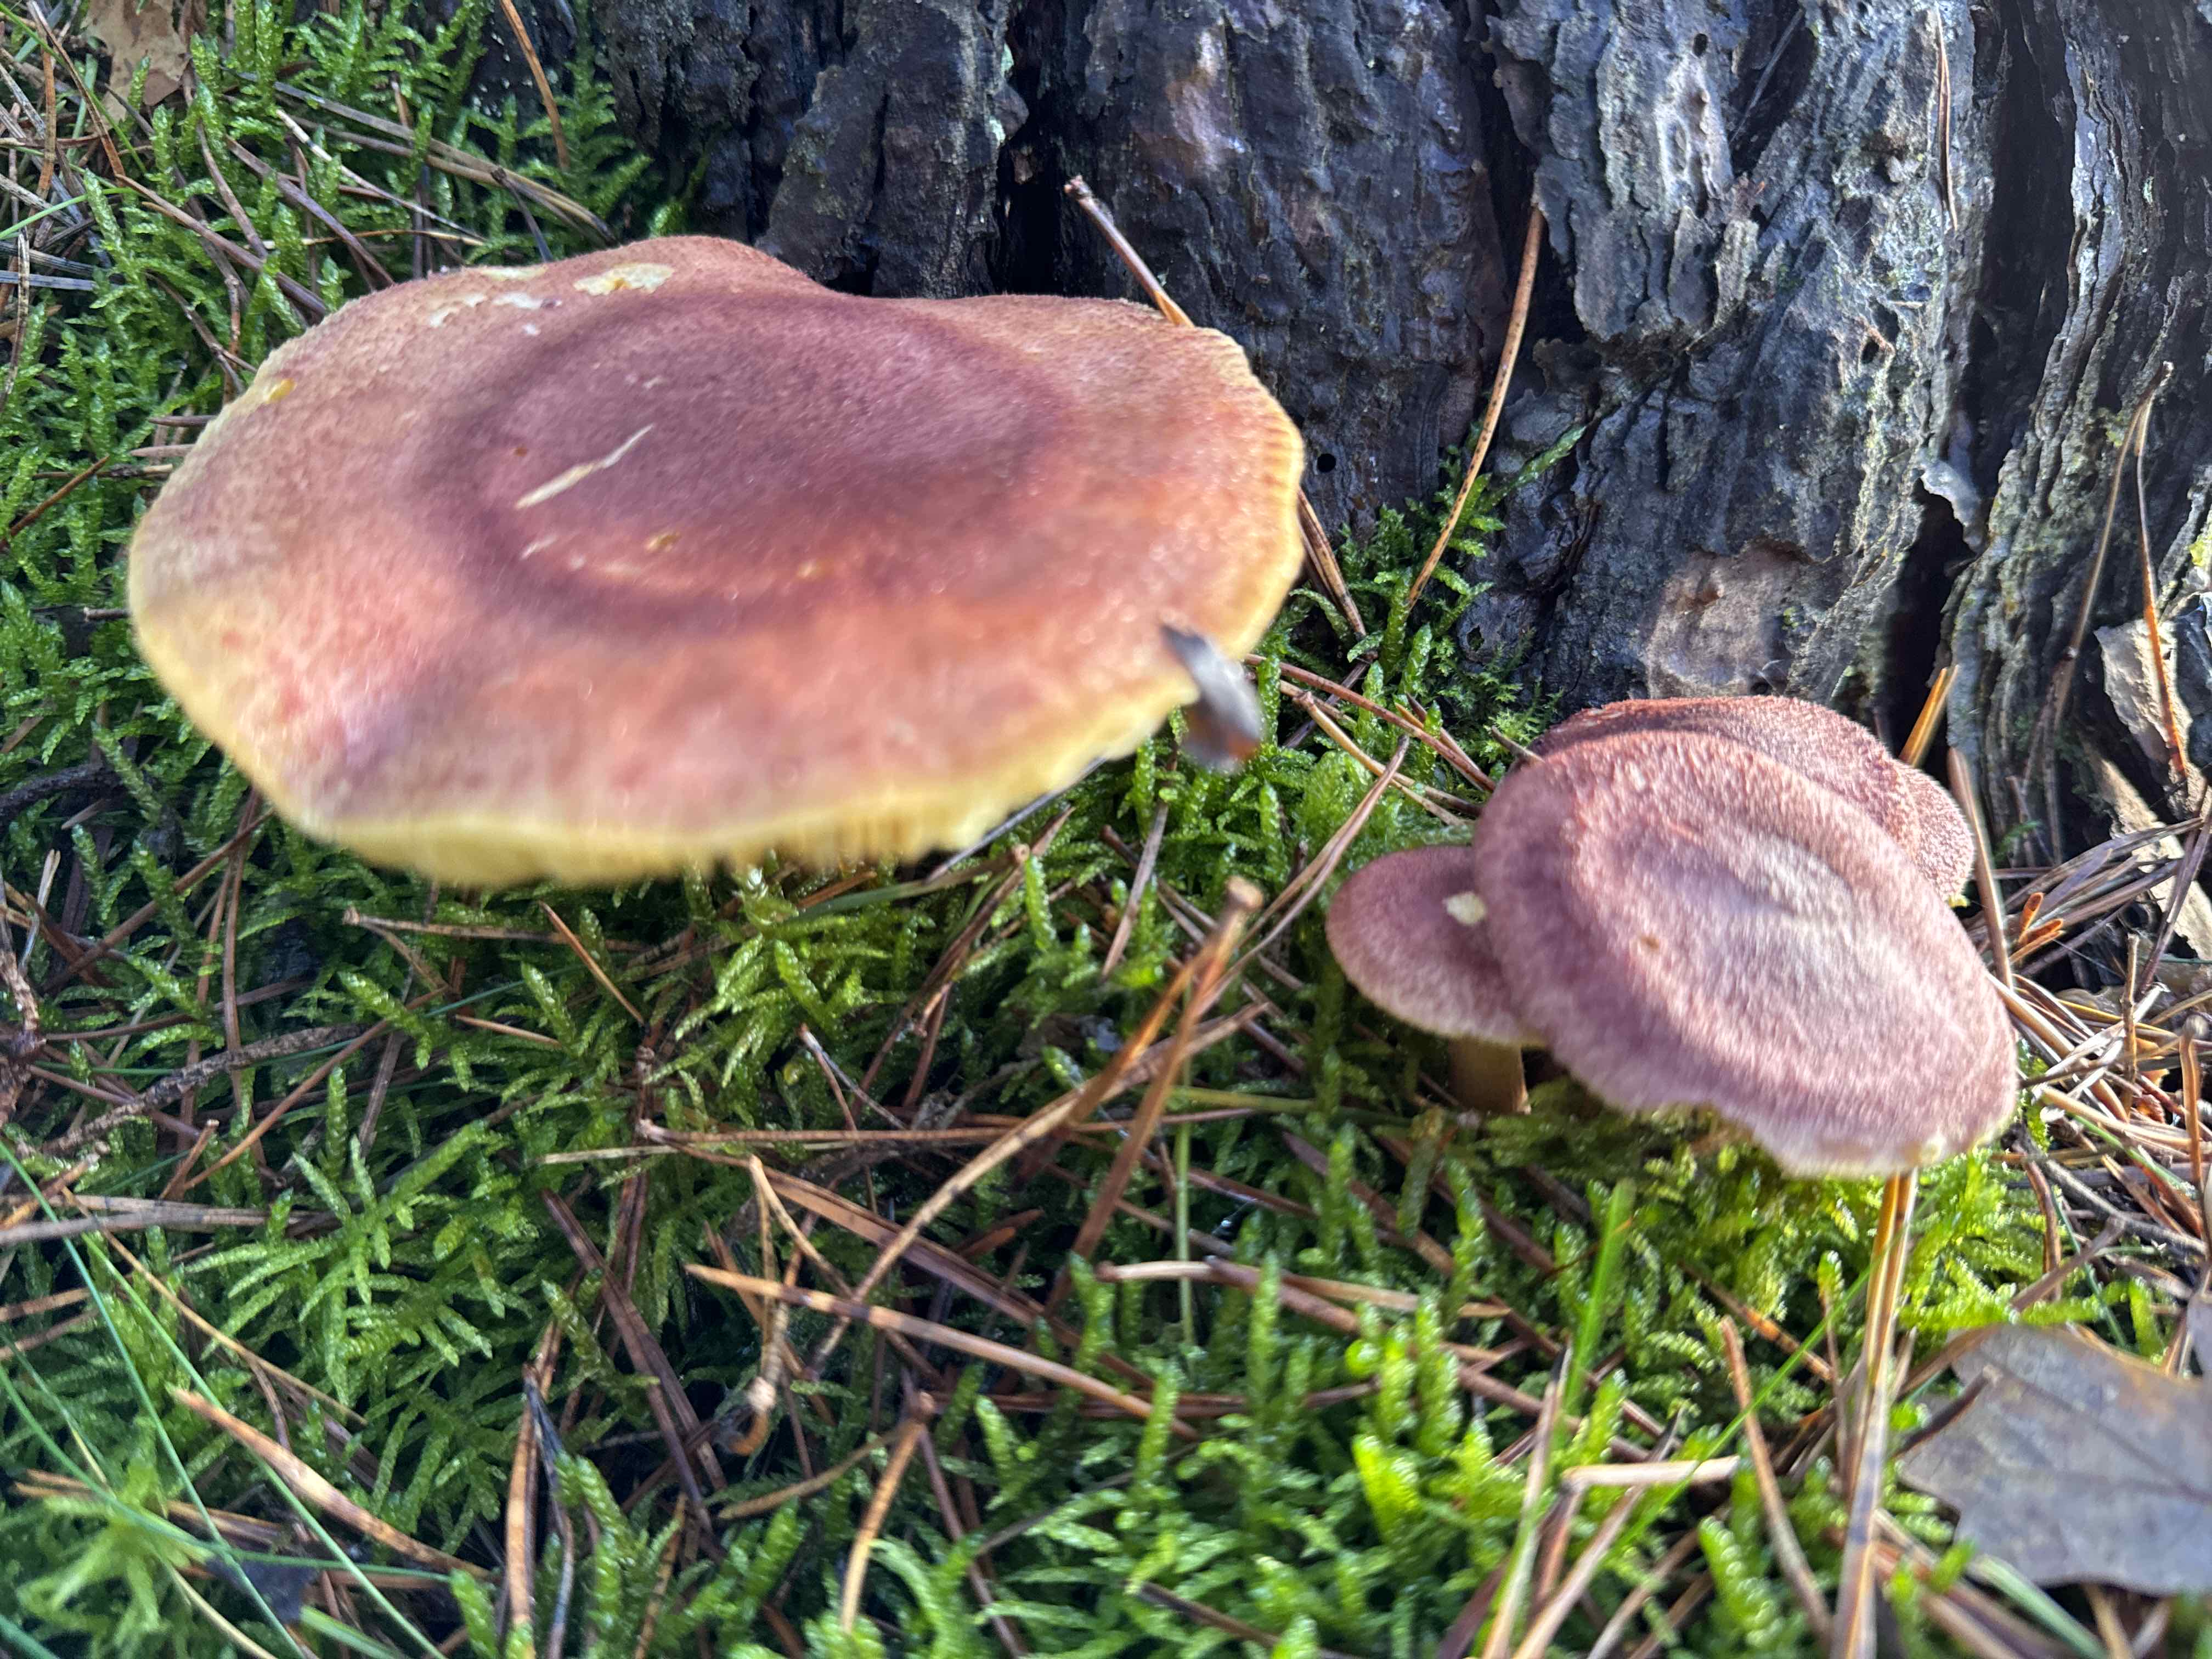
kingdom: Fungi
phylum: Basidiomycota
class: Agaricomycetes
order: Agaricales
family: Tricholomataceae
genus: Tricholomopsis
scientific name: Tricholomopsis rutilans
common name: purpur-væbnerhat
